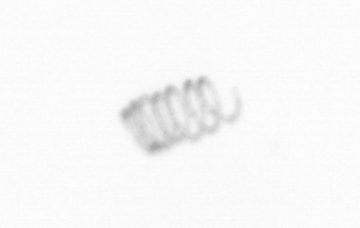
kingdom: Chromista
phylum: Ochrophyta
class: Bacillariophyceae
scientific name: Bacillariophyceae
